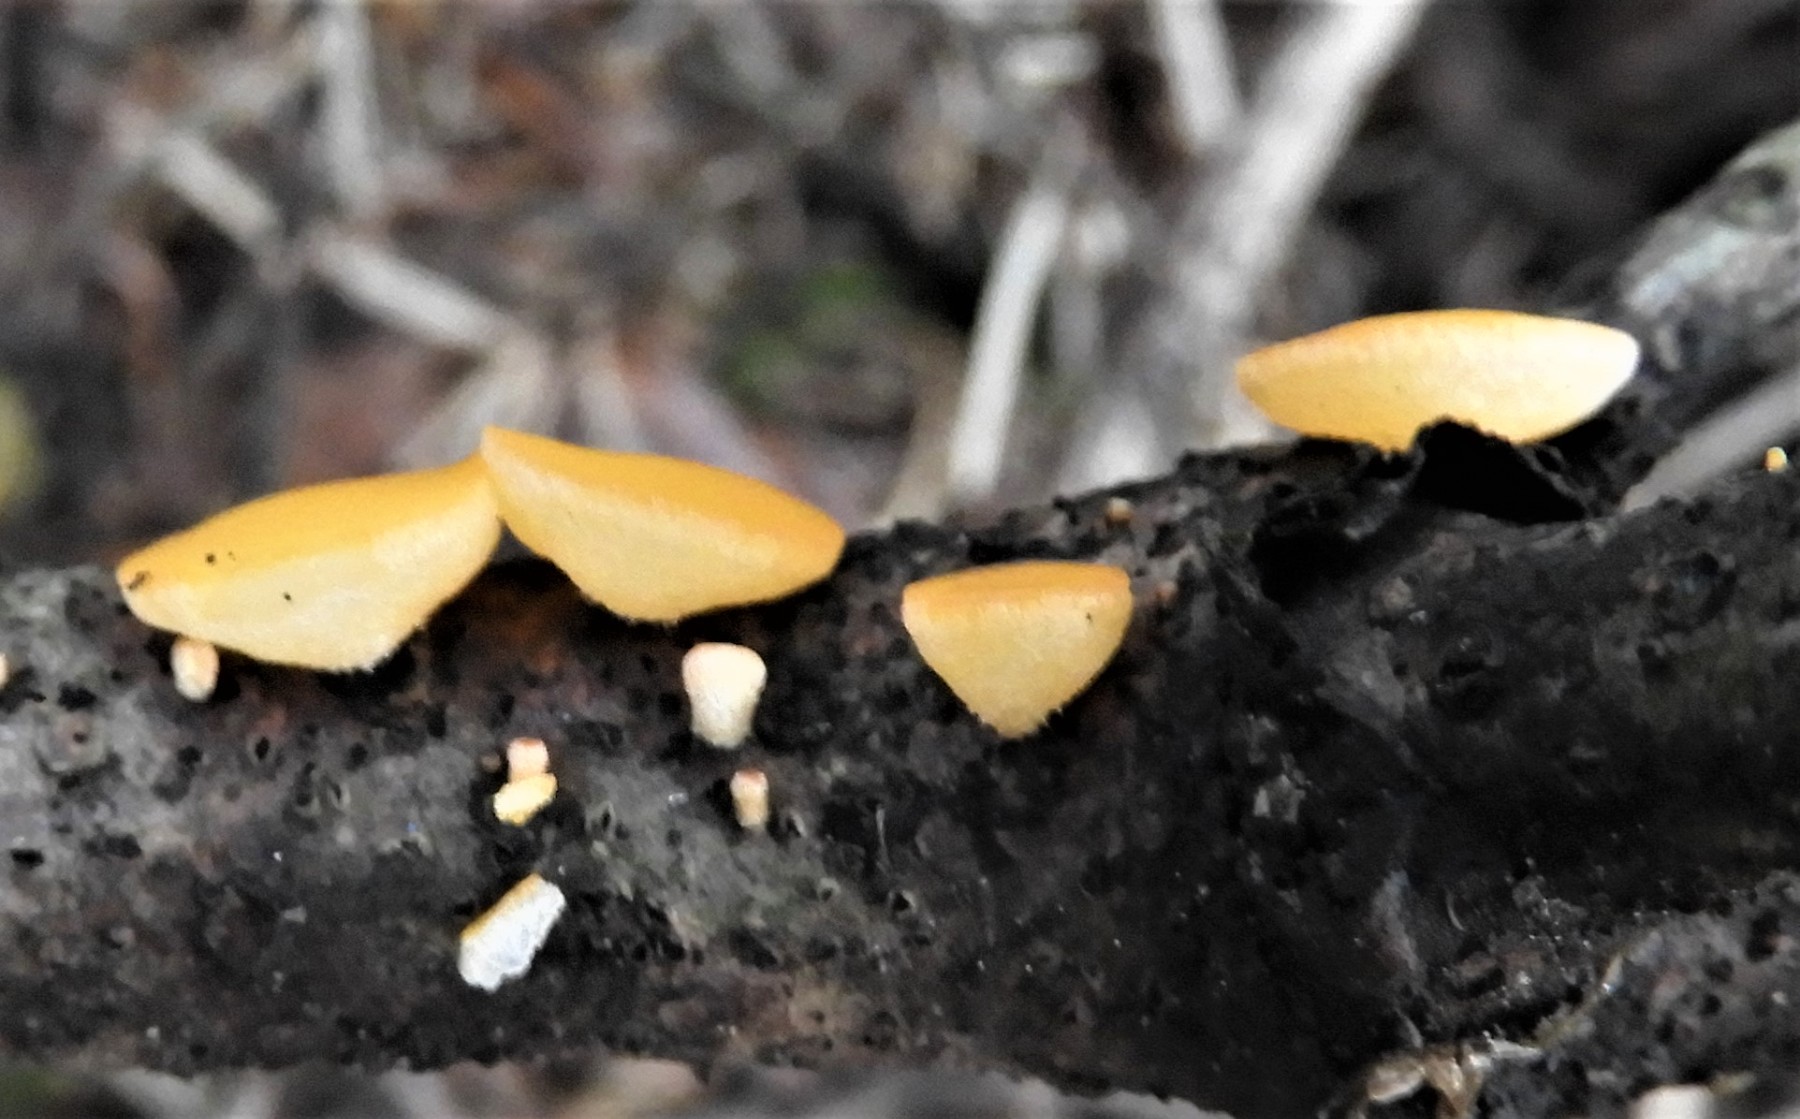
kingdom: Fungi
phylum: Ascomycota
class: Pezizomycetes
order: Pezizales
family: Sarcoscyphaceae
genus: Pithya
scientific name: Pithya vulgaris
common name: stor dukatbæger
